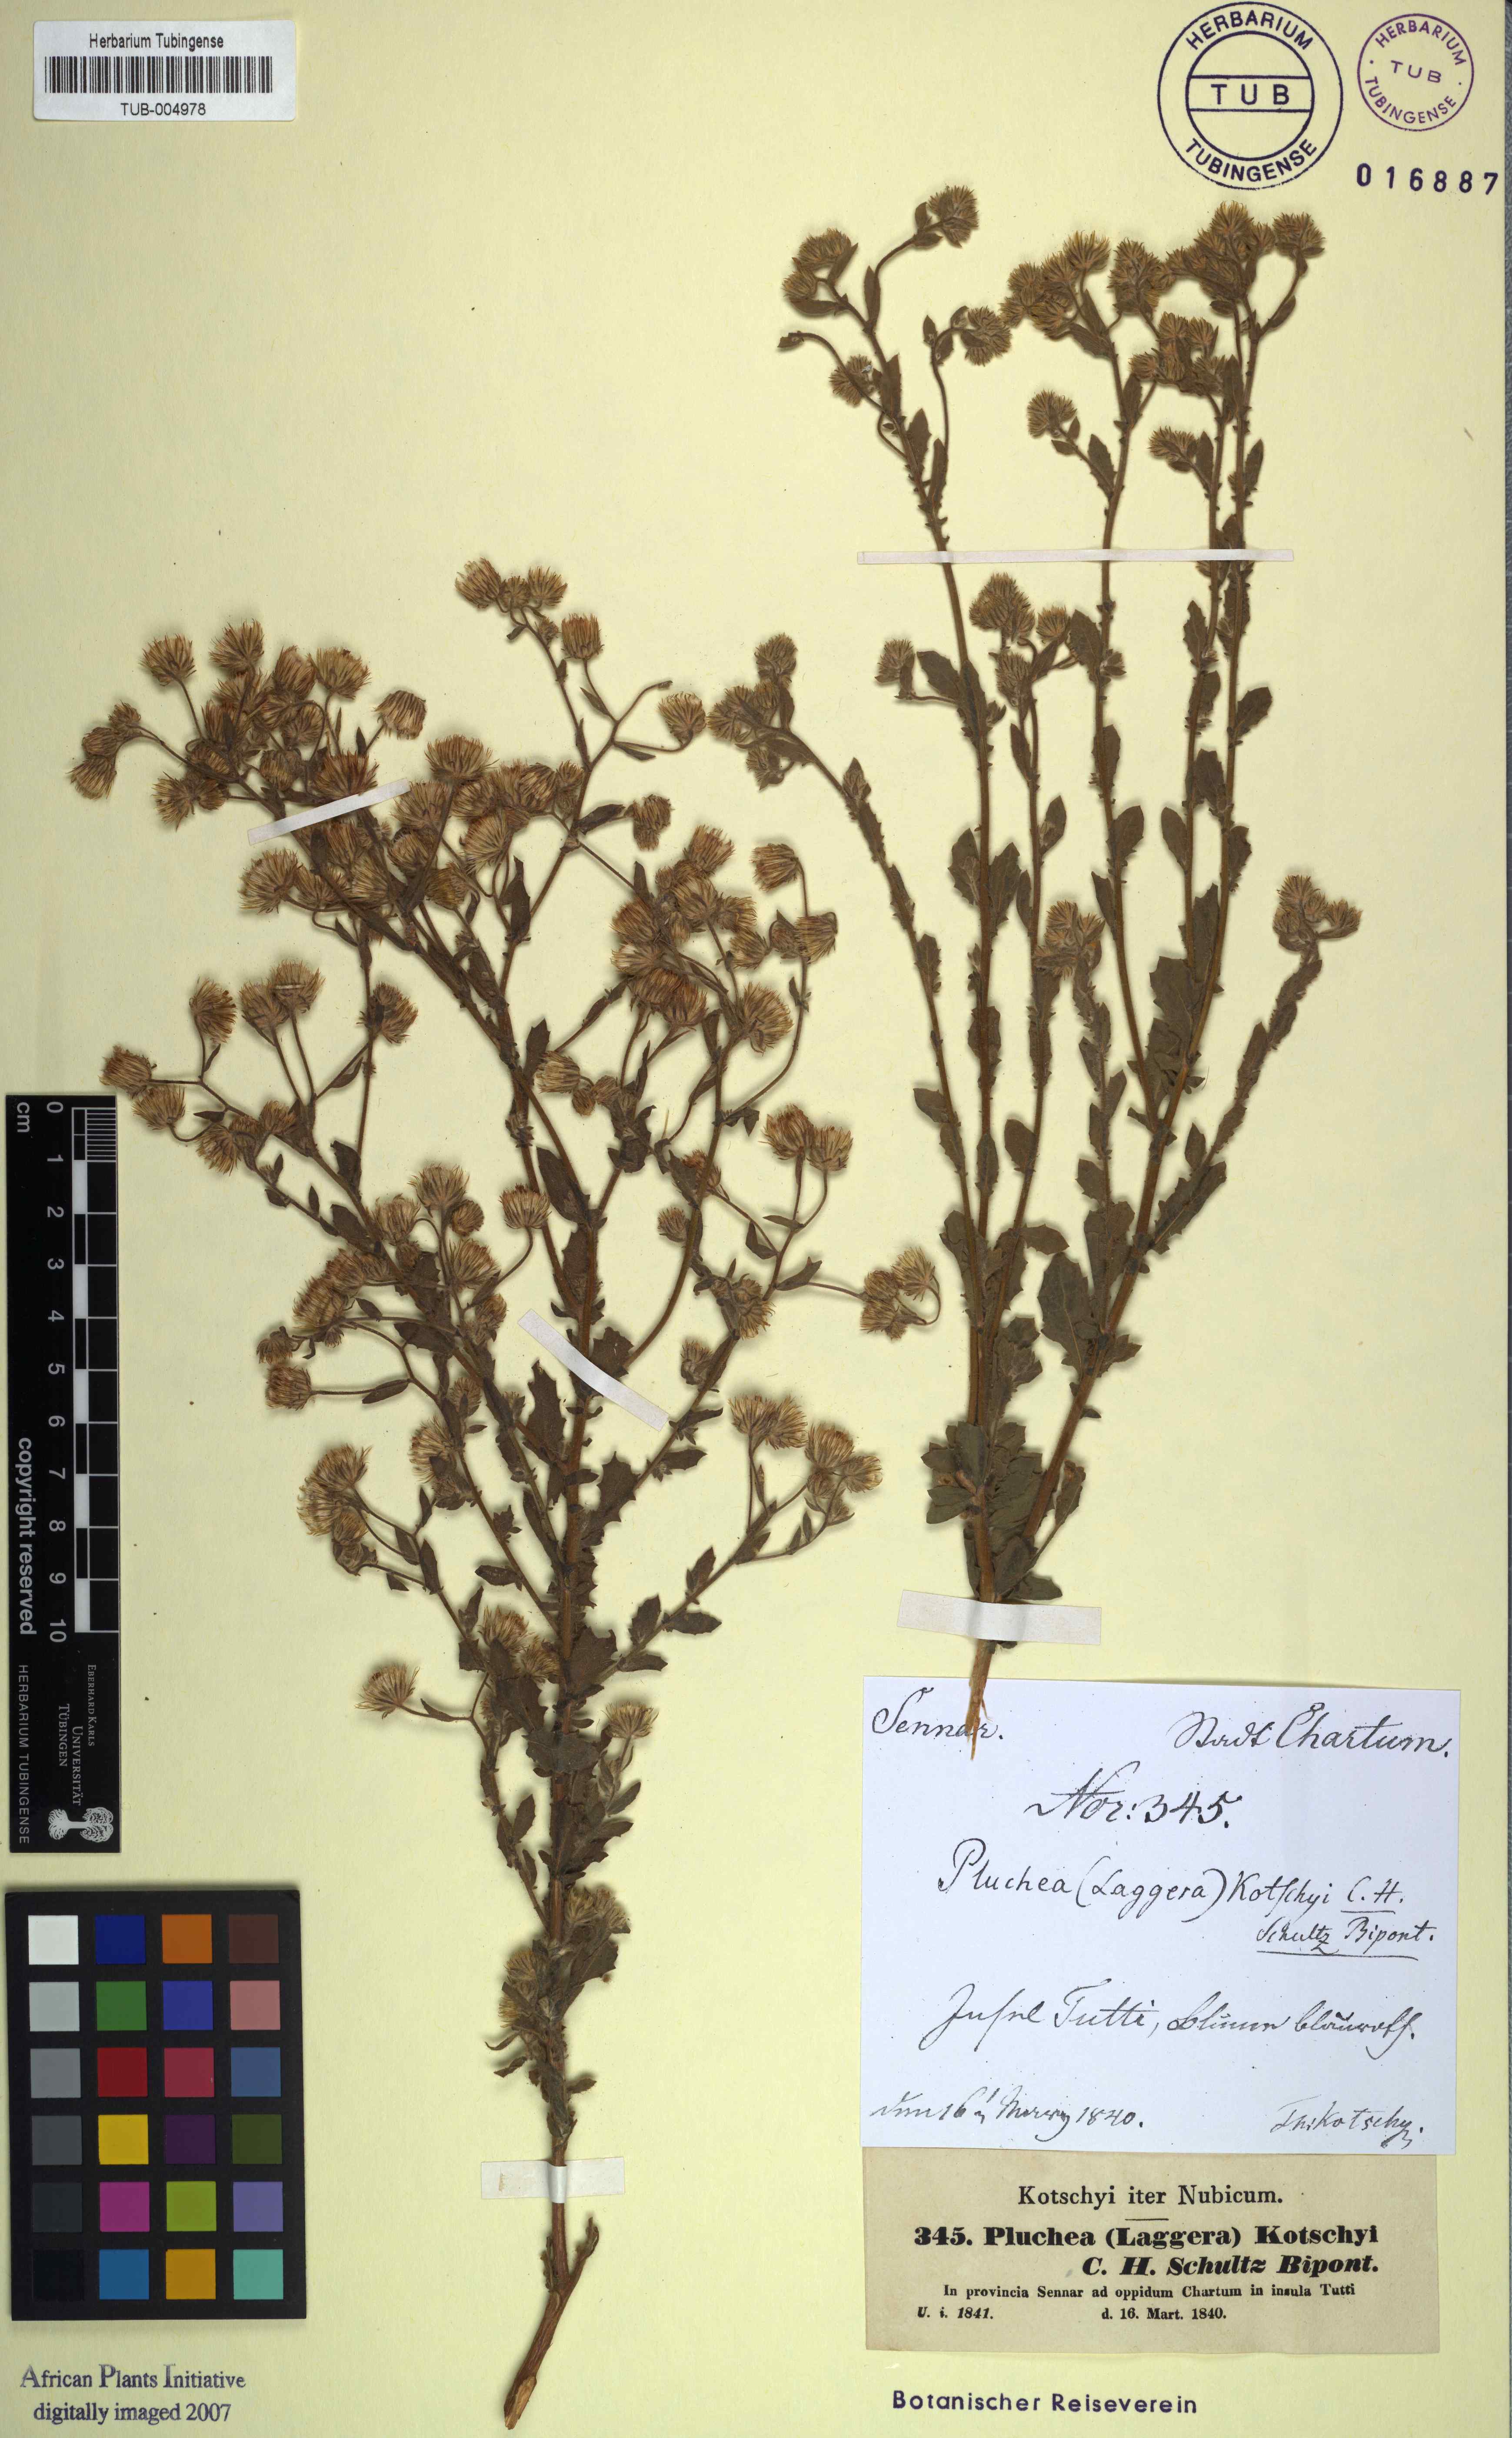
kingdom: Plantae
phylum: Tracheophyta
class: Magnoliopsida
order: Asterales
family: Asteraceae
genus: Pseudoconyza
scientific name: Pseudoconyza viscosa
